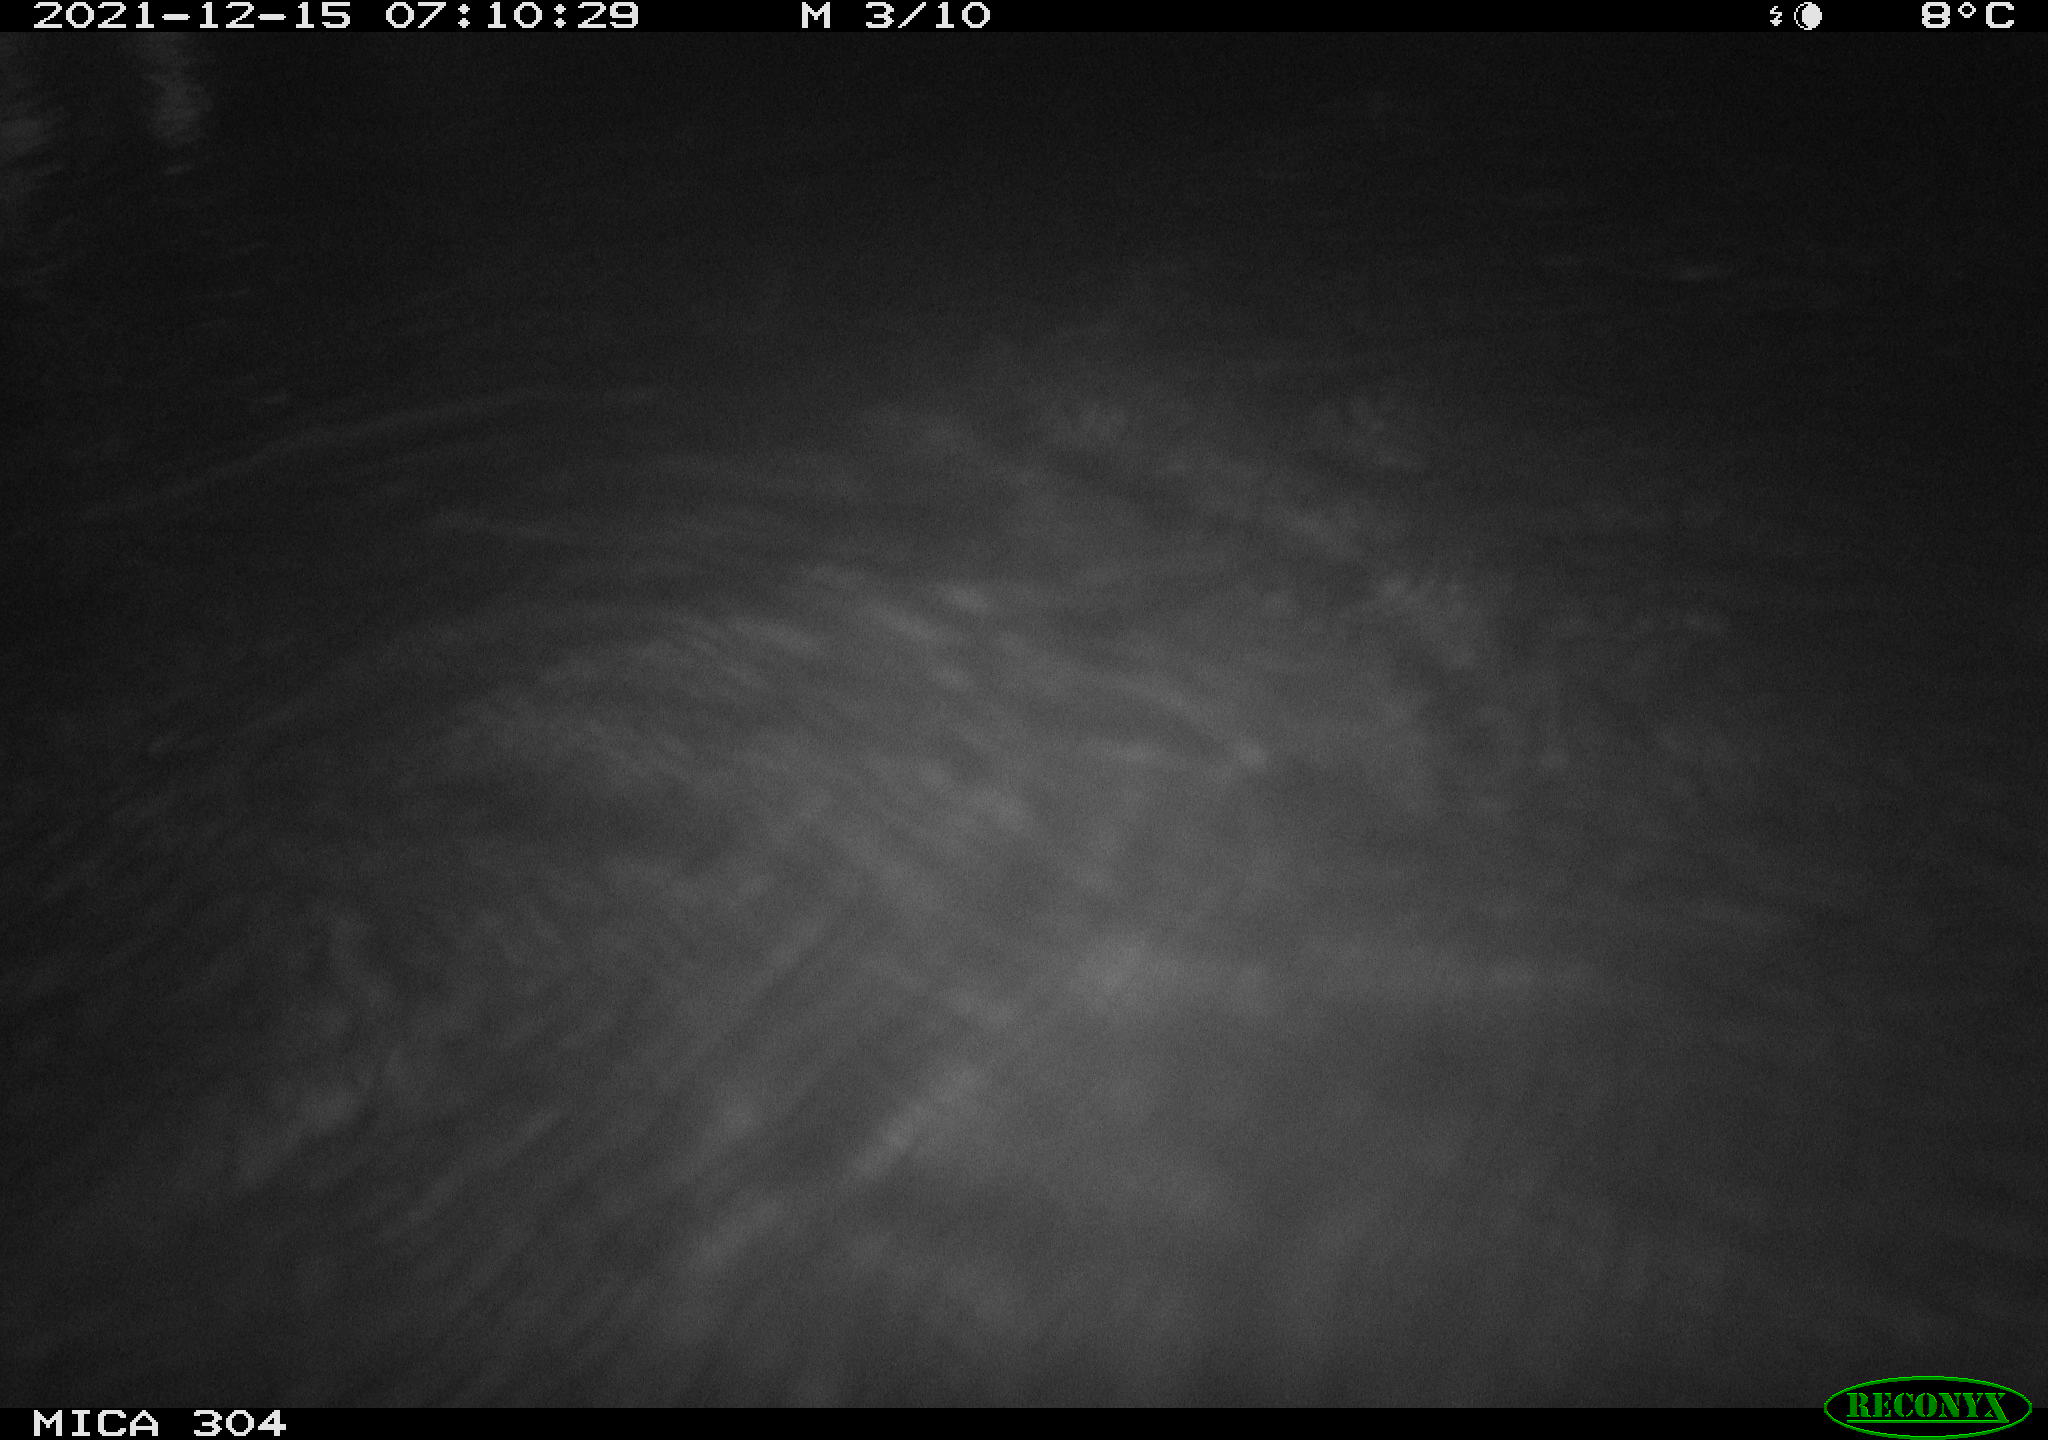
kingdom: Animalia
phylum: Chordata
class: Mammalia
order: Rodentia
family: Muridae
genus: Rattus
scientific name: Rattus norvegicus
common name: Brown rat
